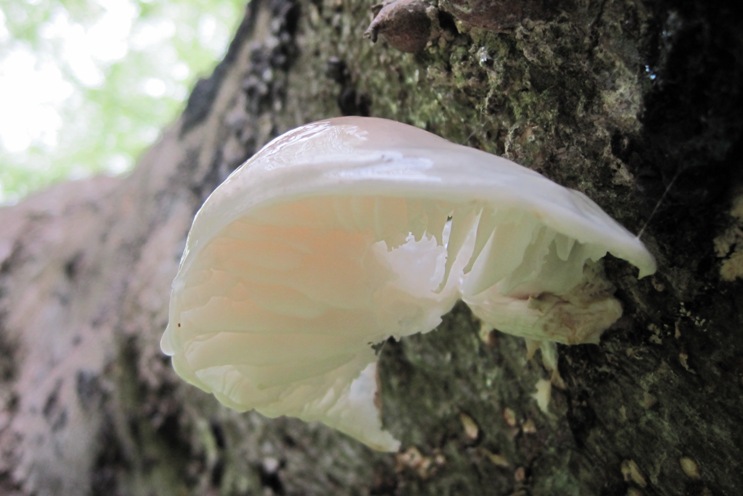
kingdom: Fungi
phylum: Basidiomycota
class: Agaricomycetes
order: Agaricales
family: Physalacriaceae
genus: Mucidula
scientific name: Mucidula mucida
